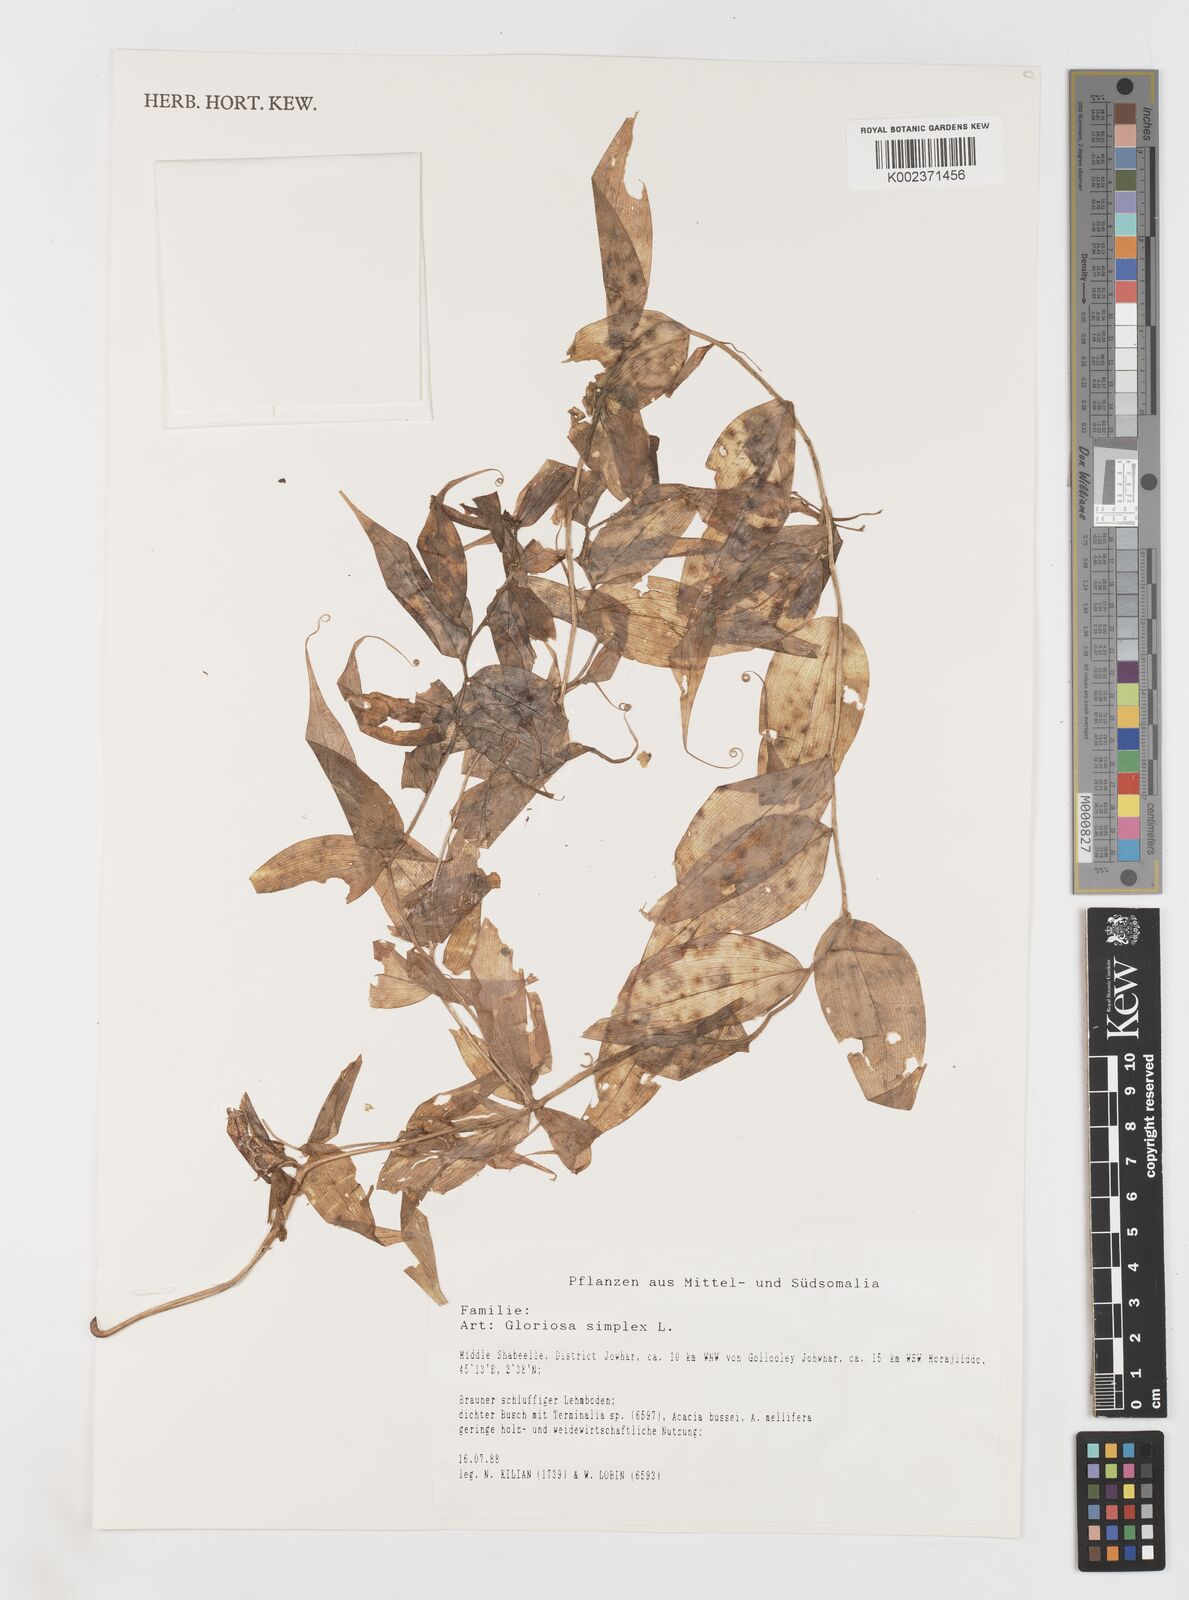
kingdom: Plantae
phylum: Tracheophyta
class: Liliopsida
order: Liliales
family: Colchicaceae
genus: Gloriosa
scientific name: Gloriosa simplex
